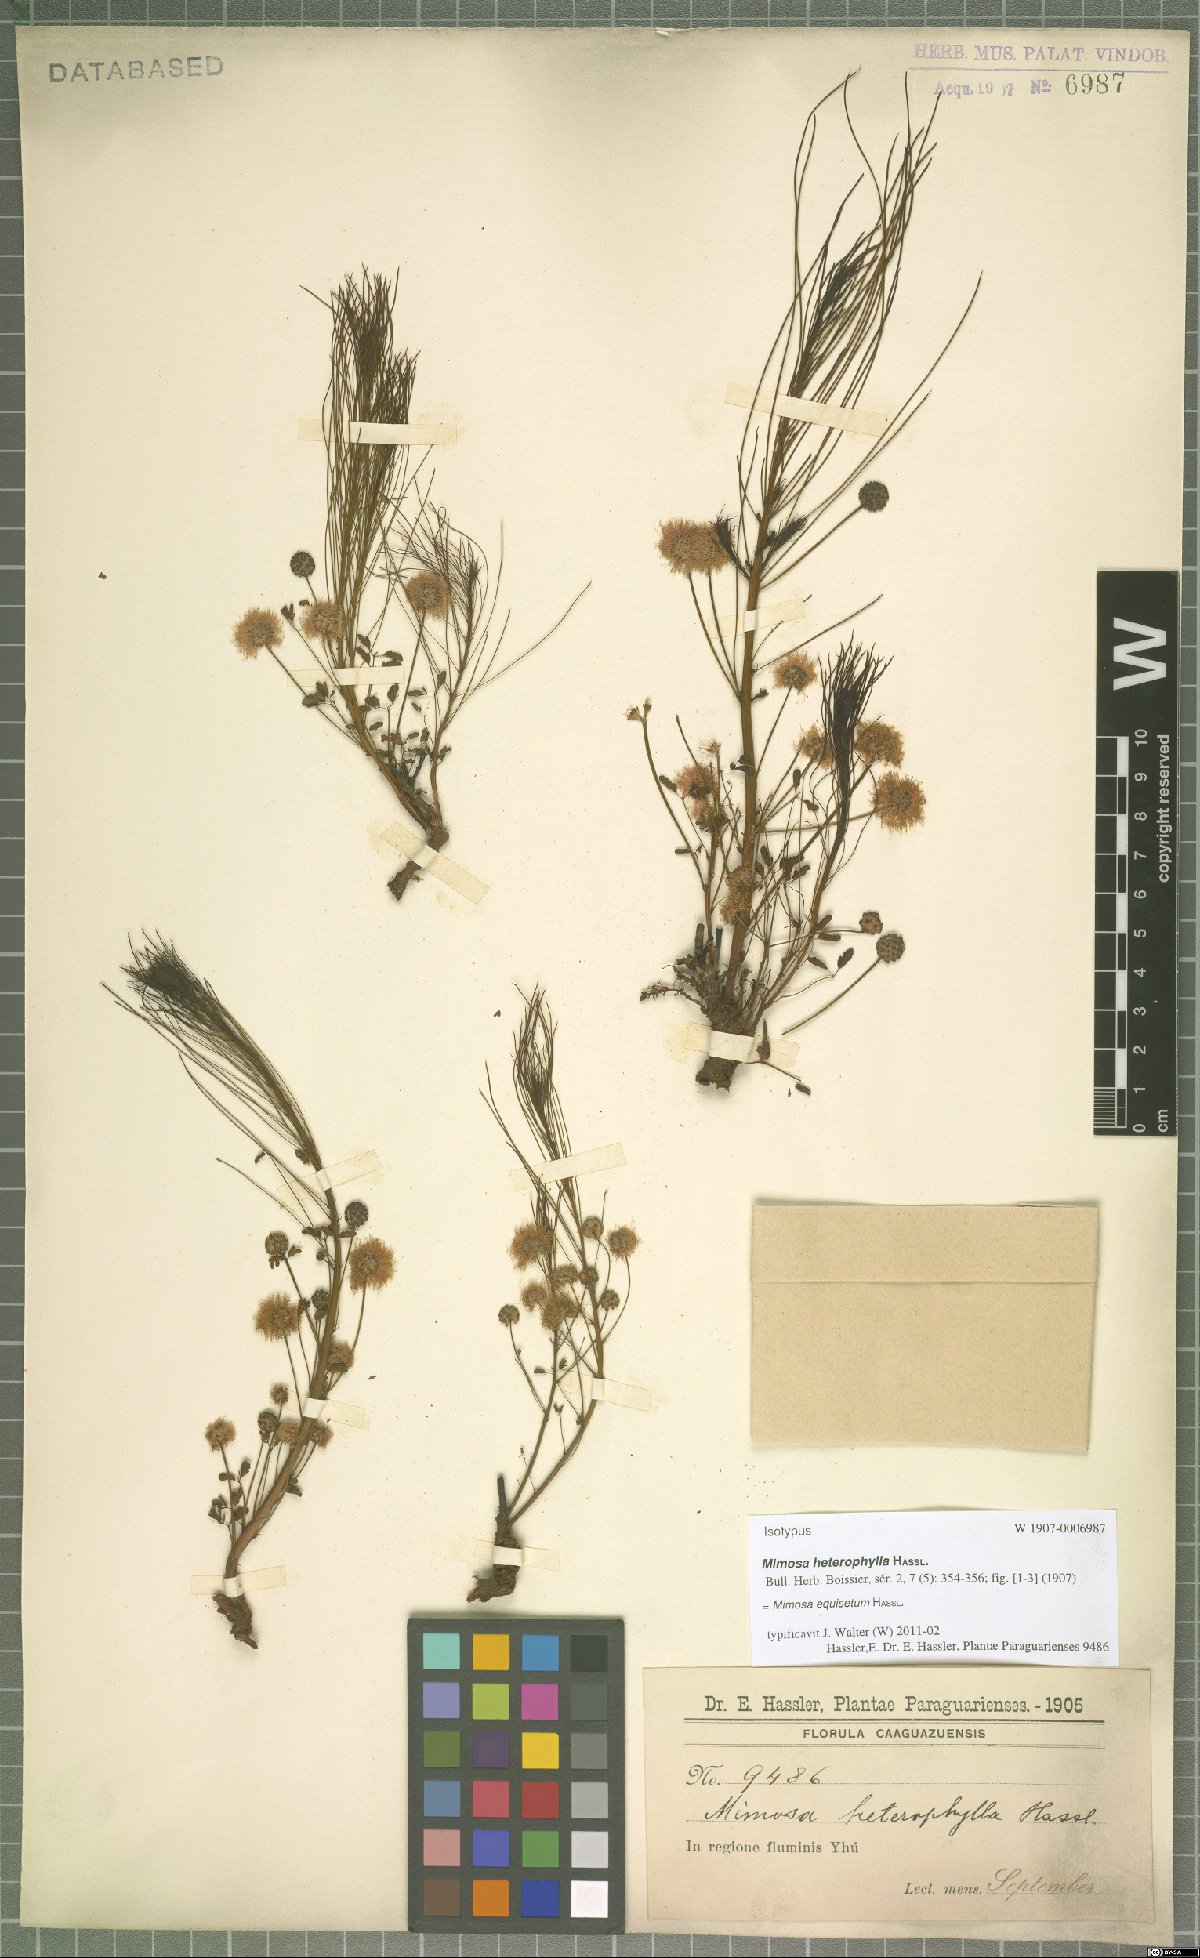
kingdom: Plantae
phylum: Tracheophyta
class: Magnoliopsida
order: Fabales
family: Fabaceae
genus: Mimosa
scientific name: Mimosa equisetum
